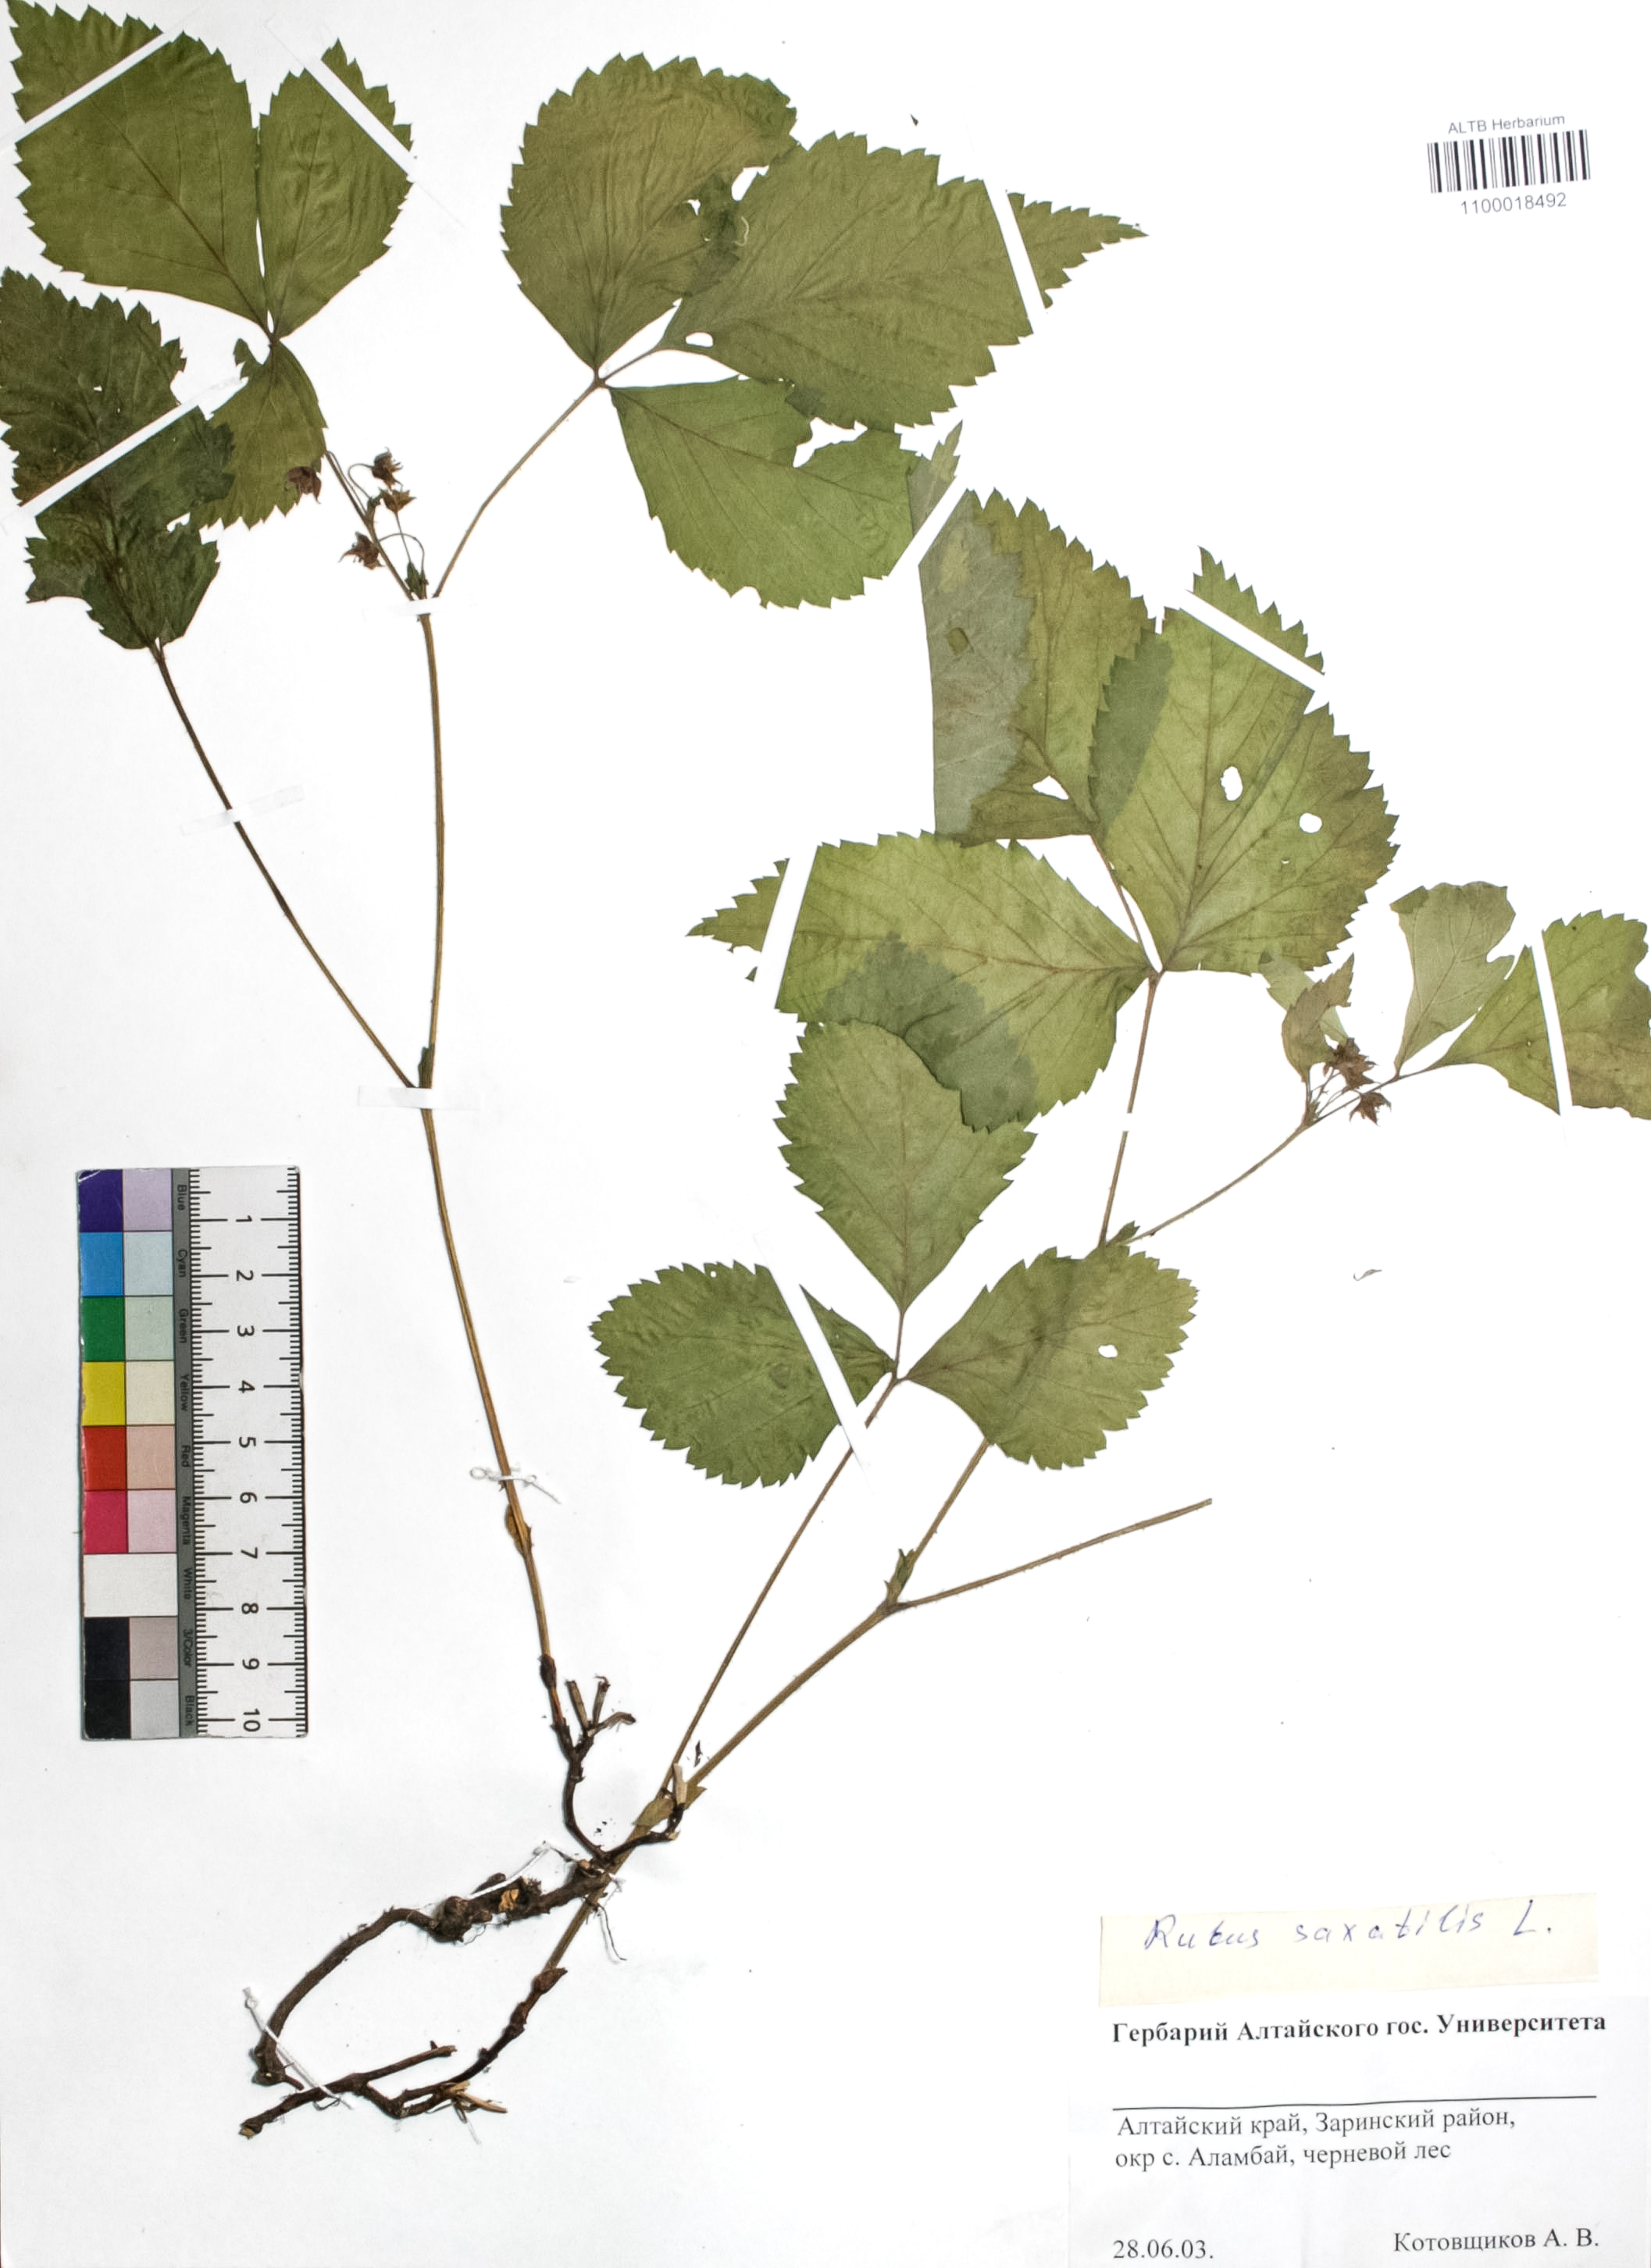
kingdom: Plantae
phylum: Tracheophyta
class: Magnoliopsida
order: Rosales
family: Rosaceae
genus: Rubus
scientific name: Rubus saxatilis
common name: Stone bramble
